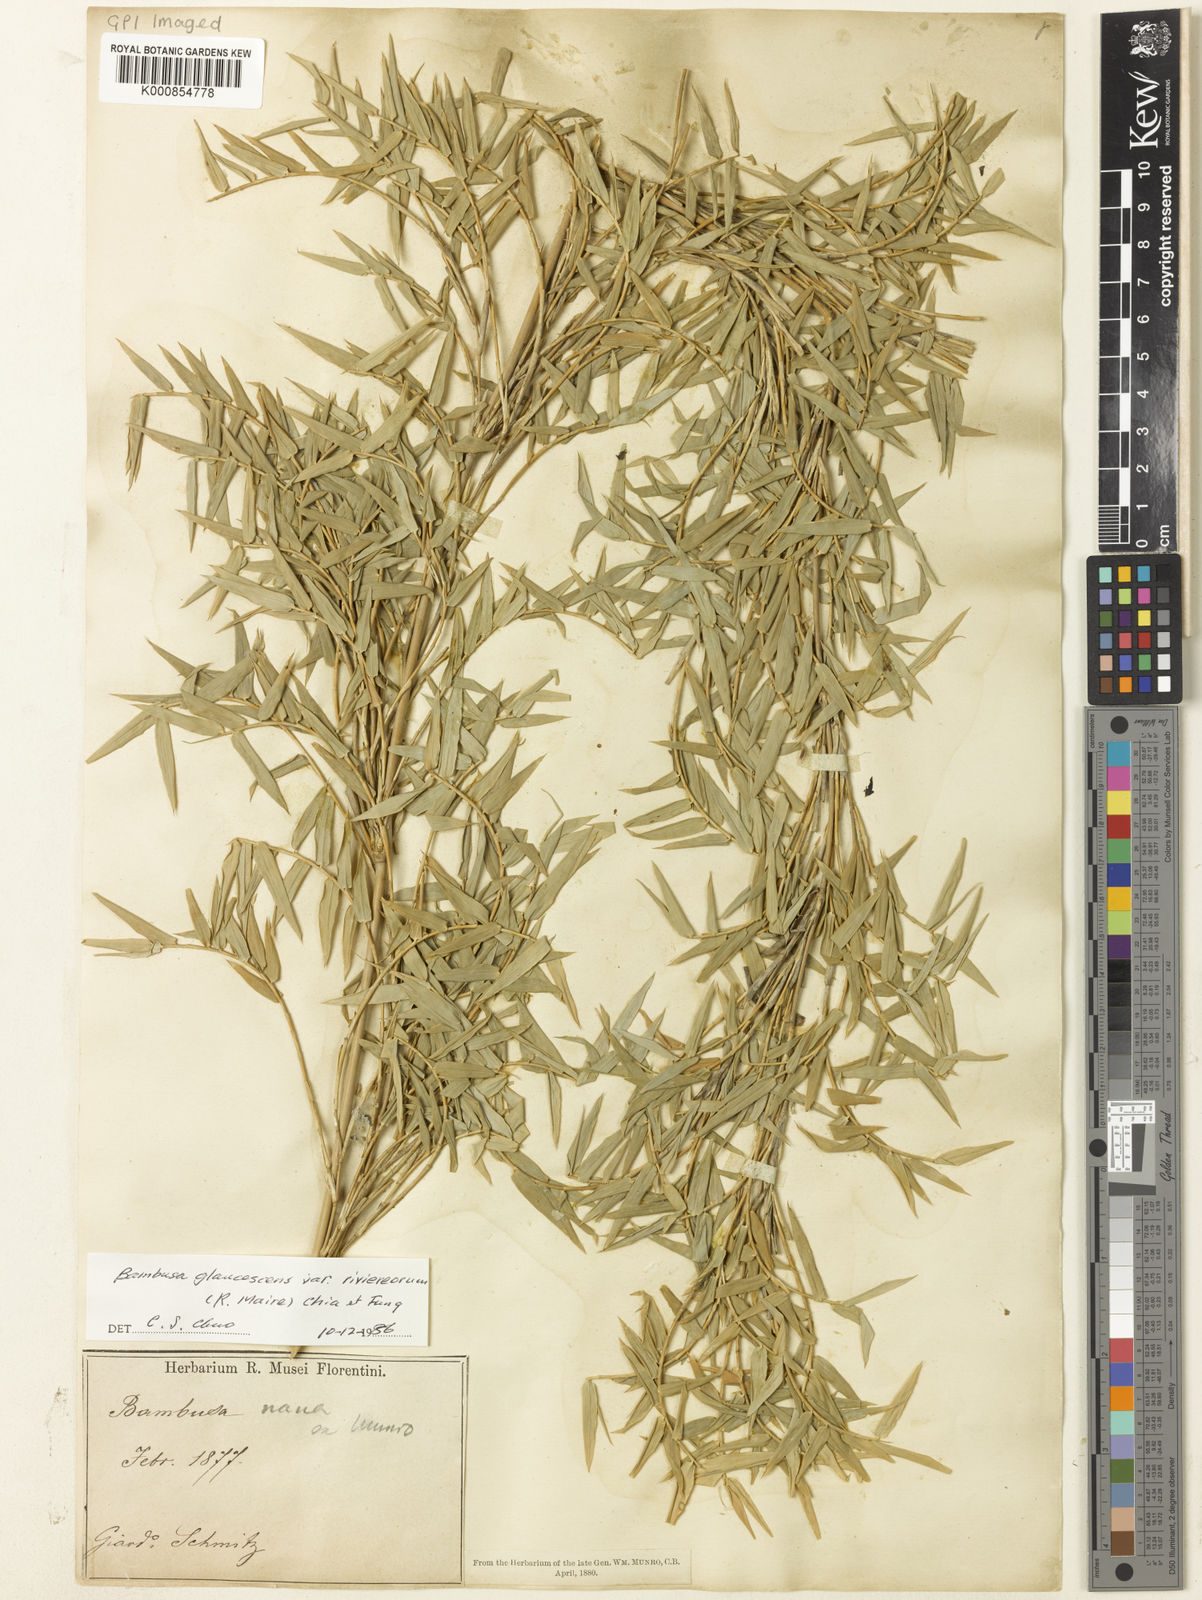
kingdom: Plantae
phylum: Tracheophyta
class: Liliopsida
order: Poales
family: Poaceae
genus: Bambusa
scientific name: Bambusa multiplex
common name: Hedge bamboo
